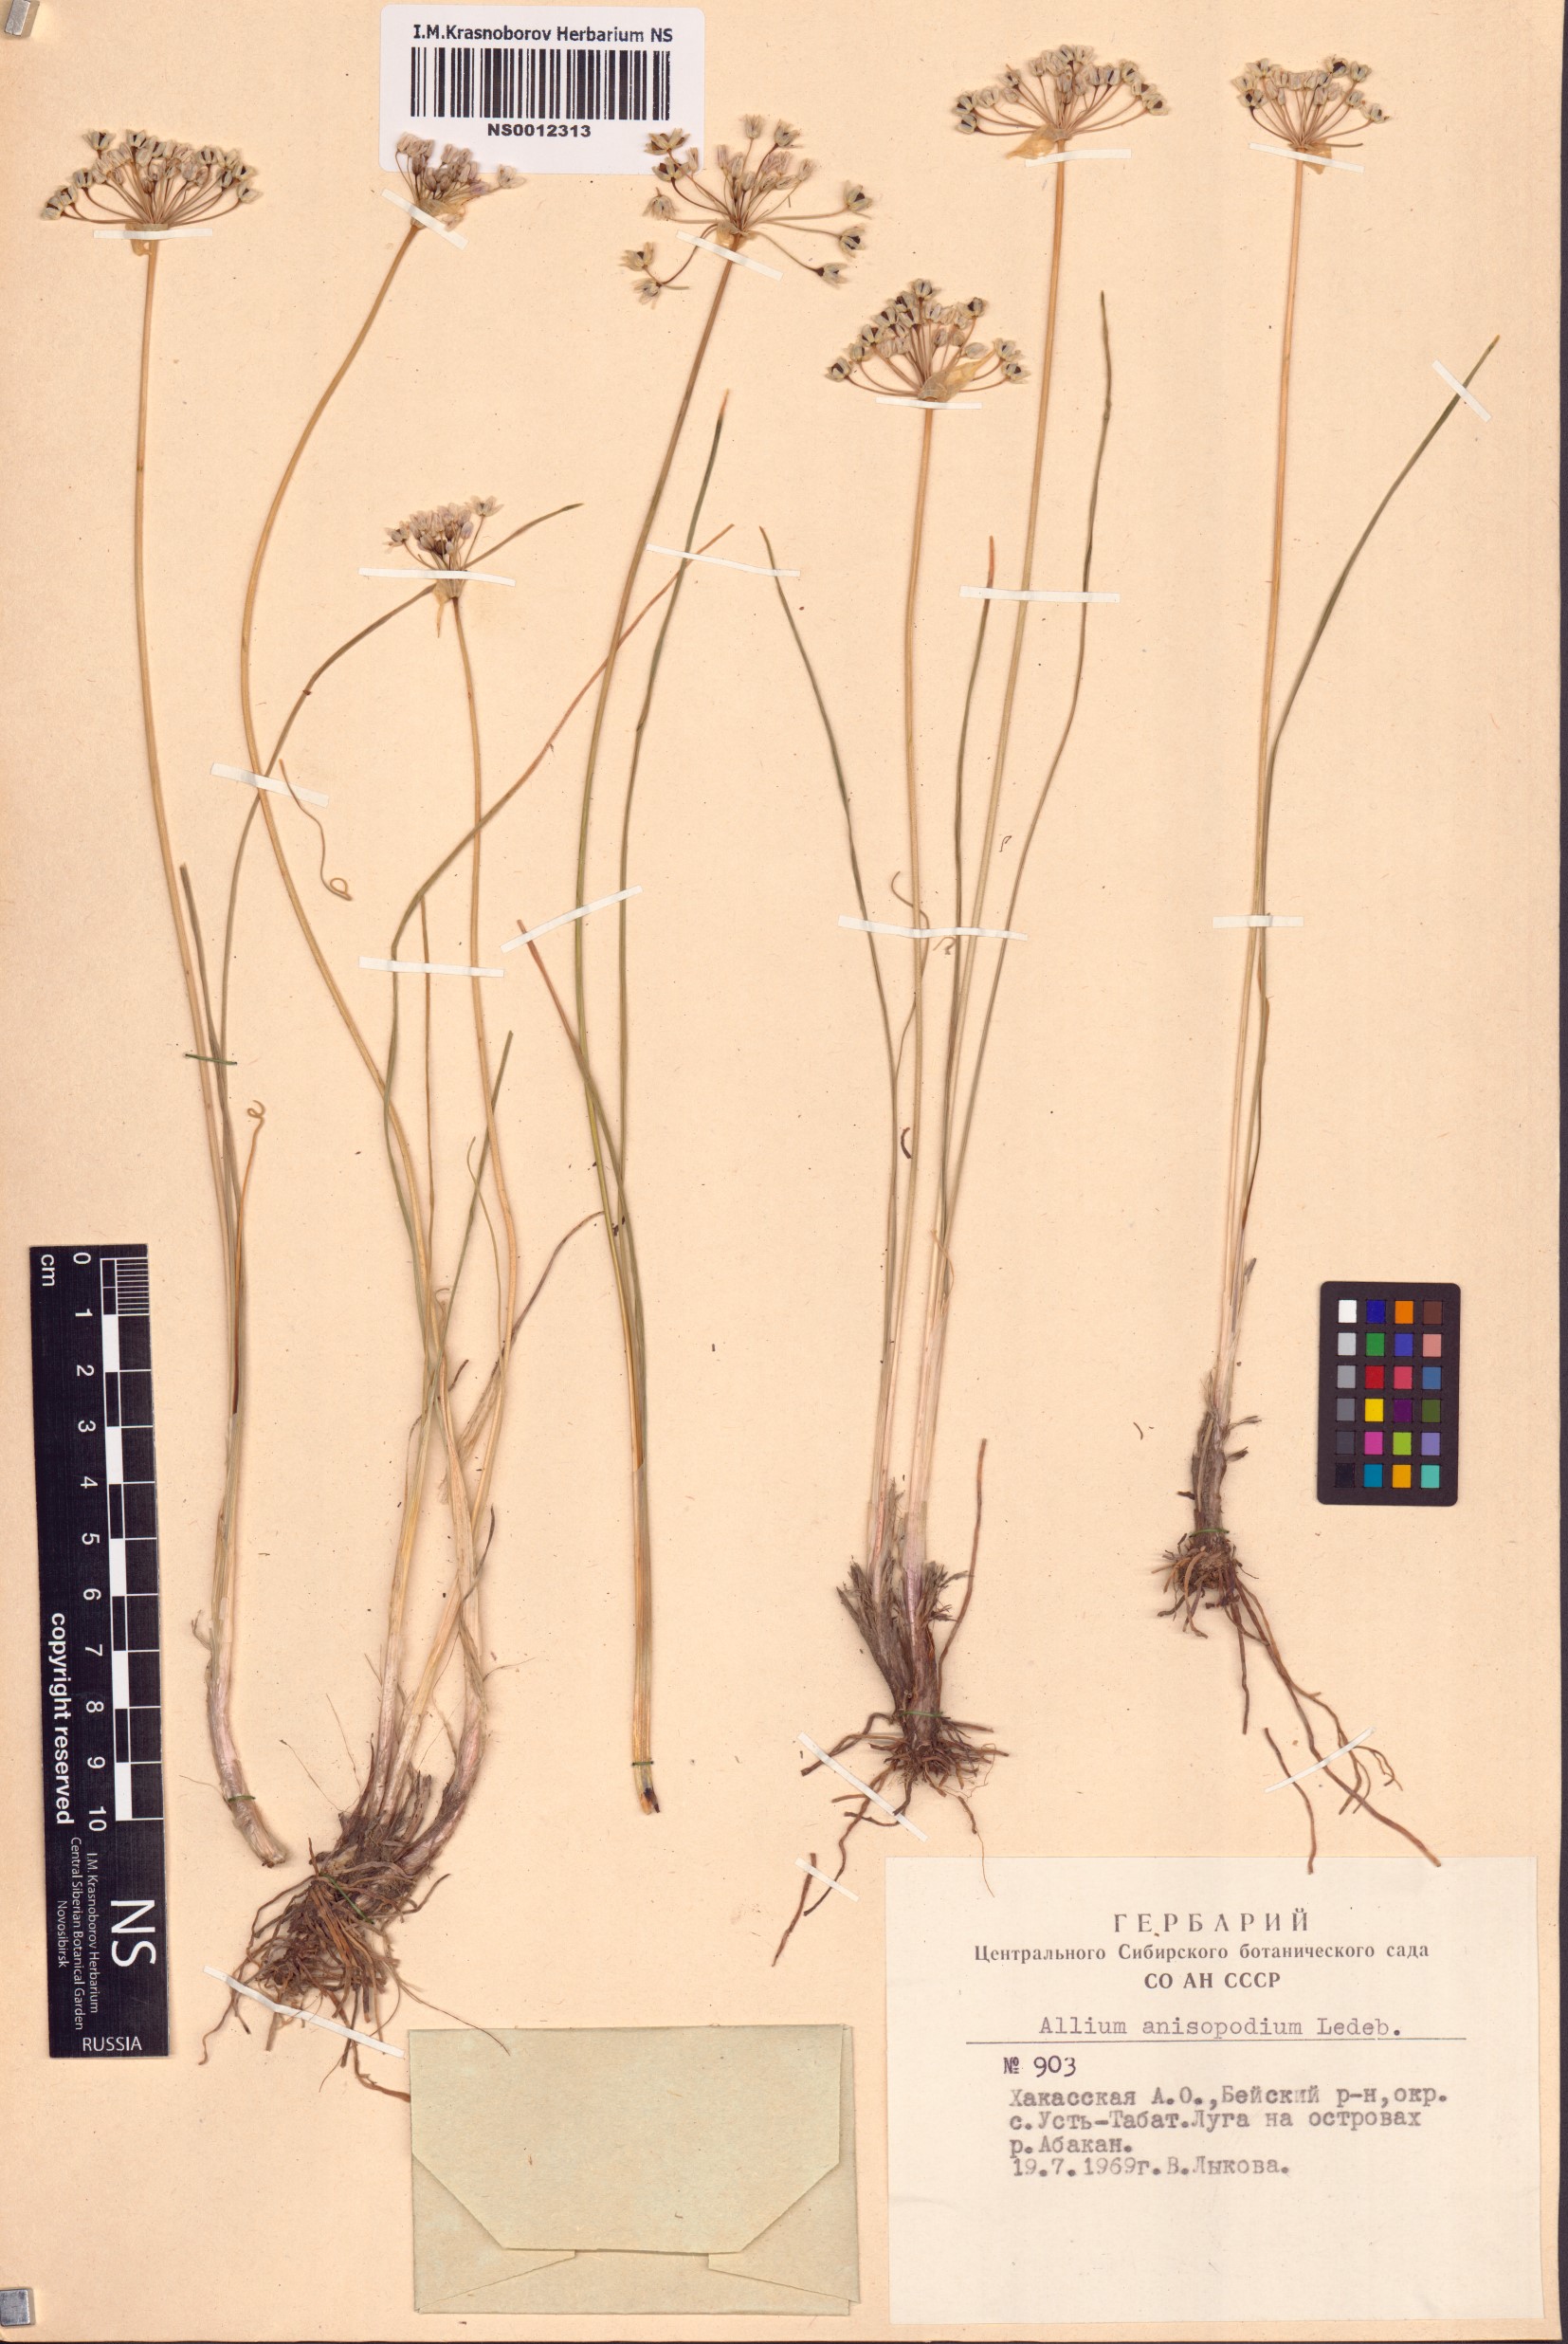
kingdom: Plantae
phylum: Tracheophyta
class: Liliopsida
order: Asparagales
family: Amaryllidaceae
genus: Allium
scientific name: Allium anisopodium
